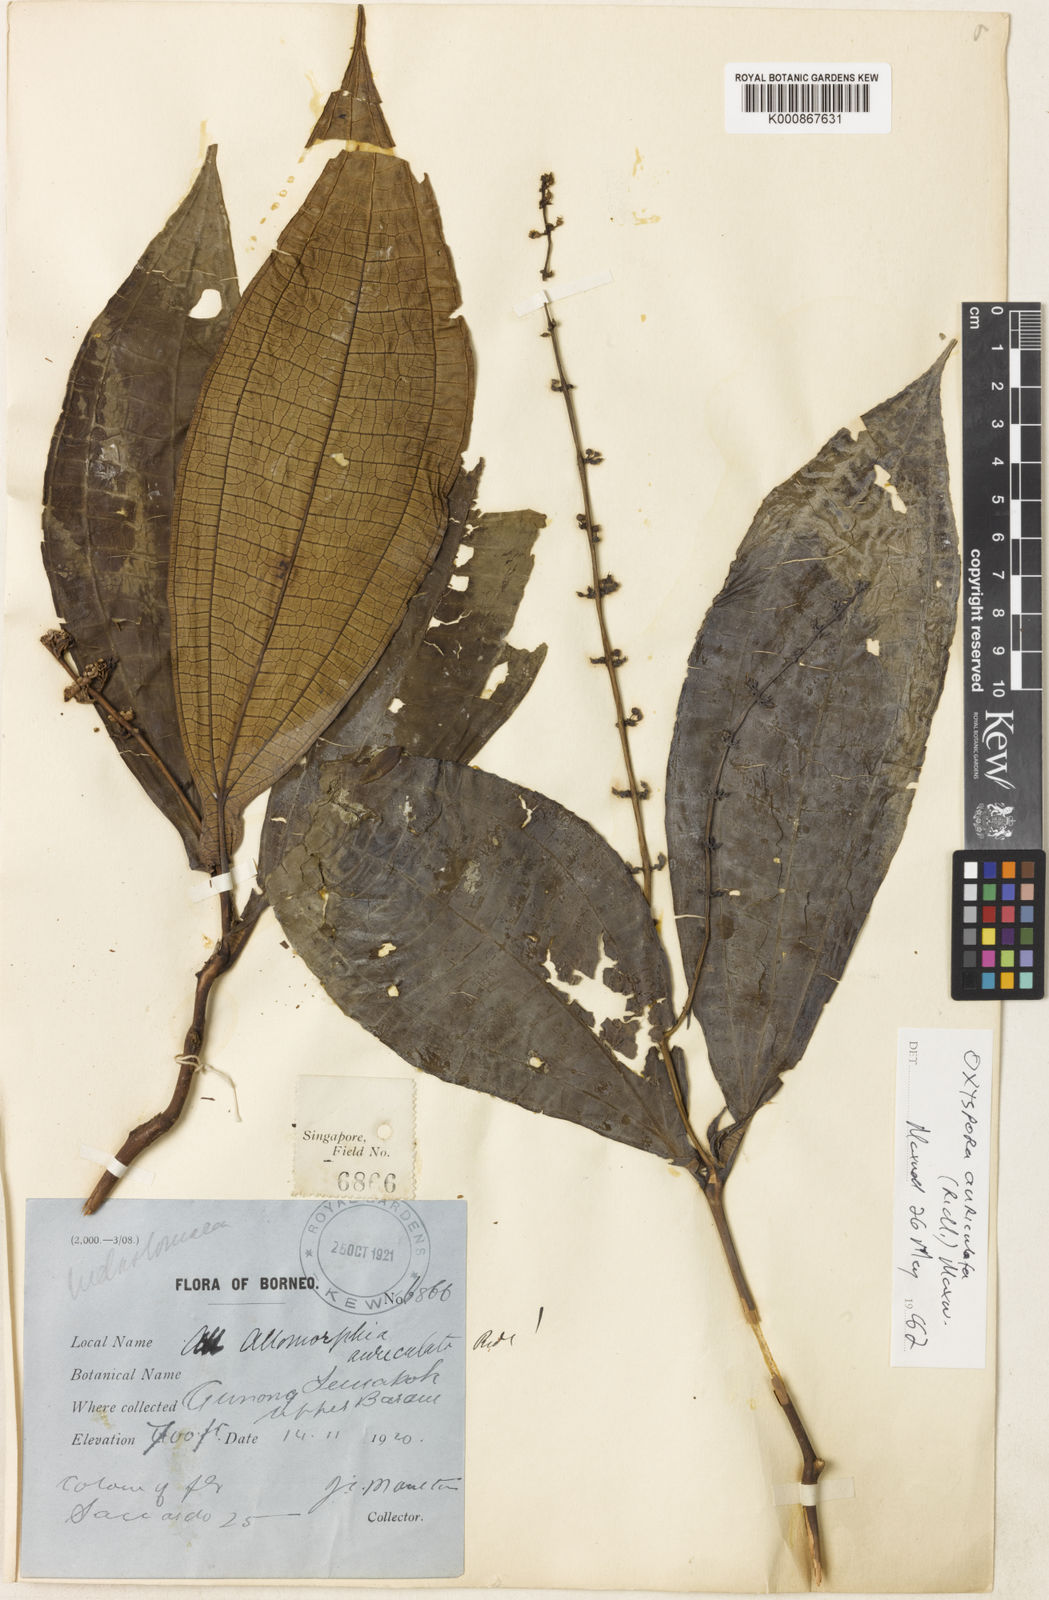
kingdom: Plantae
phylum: Tracheophyta
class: Magnoliopsida
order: Myrtales
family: Melastomataceae
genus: Campimia
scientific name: Campimia auriculata
